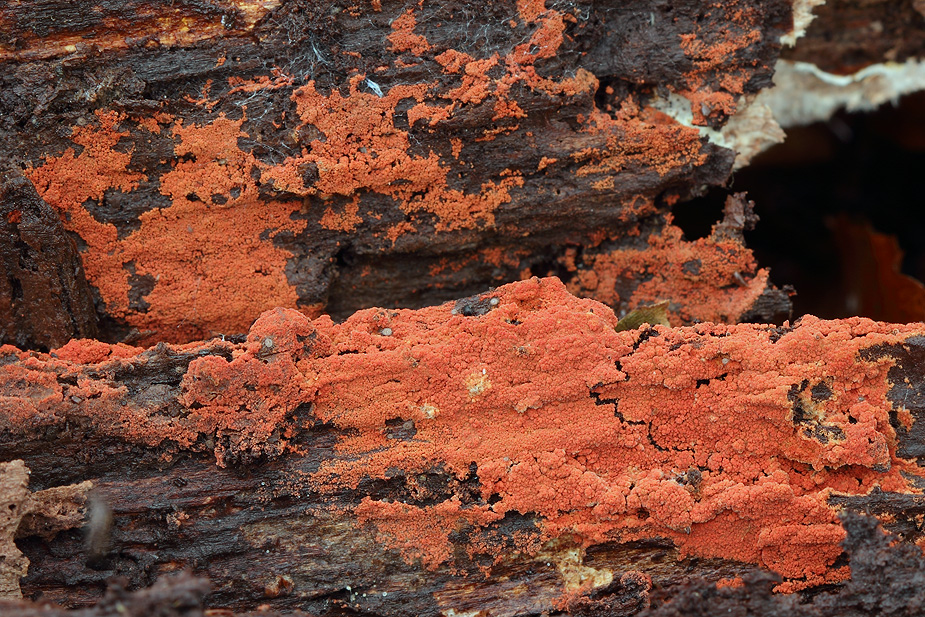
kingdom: Fungi
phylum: Basidiomycota
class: Agaricomycetes
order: Thelephorales
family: Thelephoraceae
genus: Tomentella
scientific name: Tomentella lateritia
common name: teglrød frynsehinde
